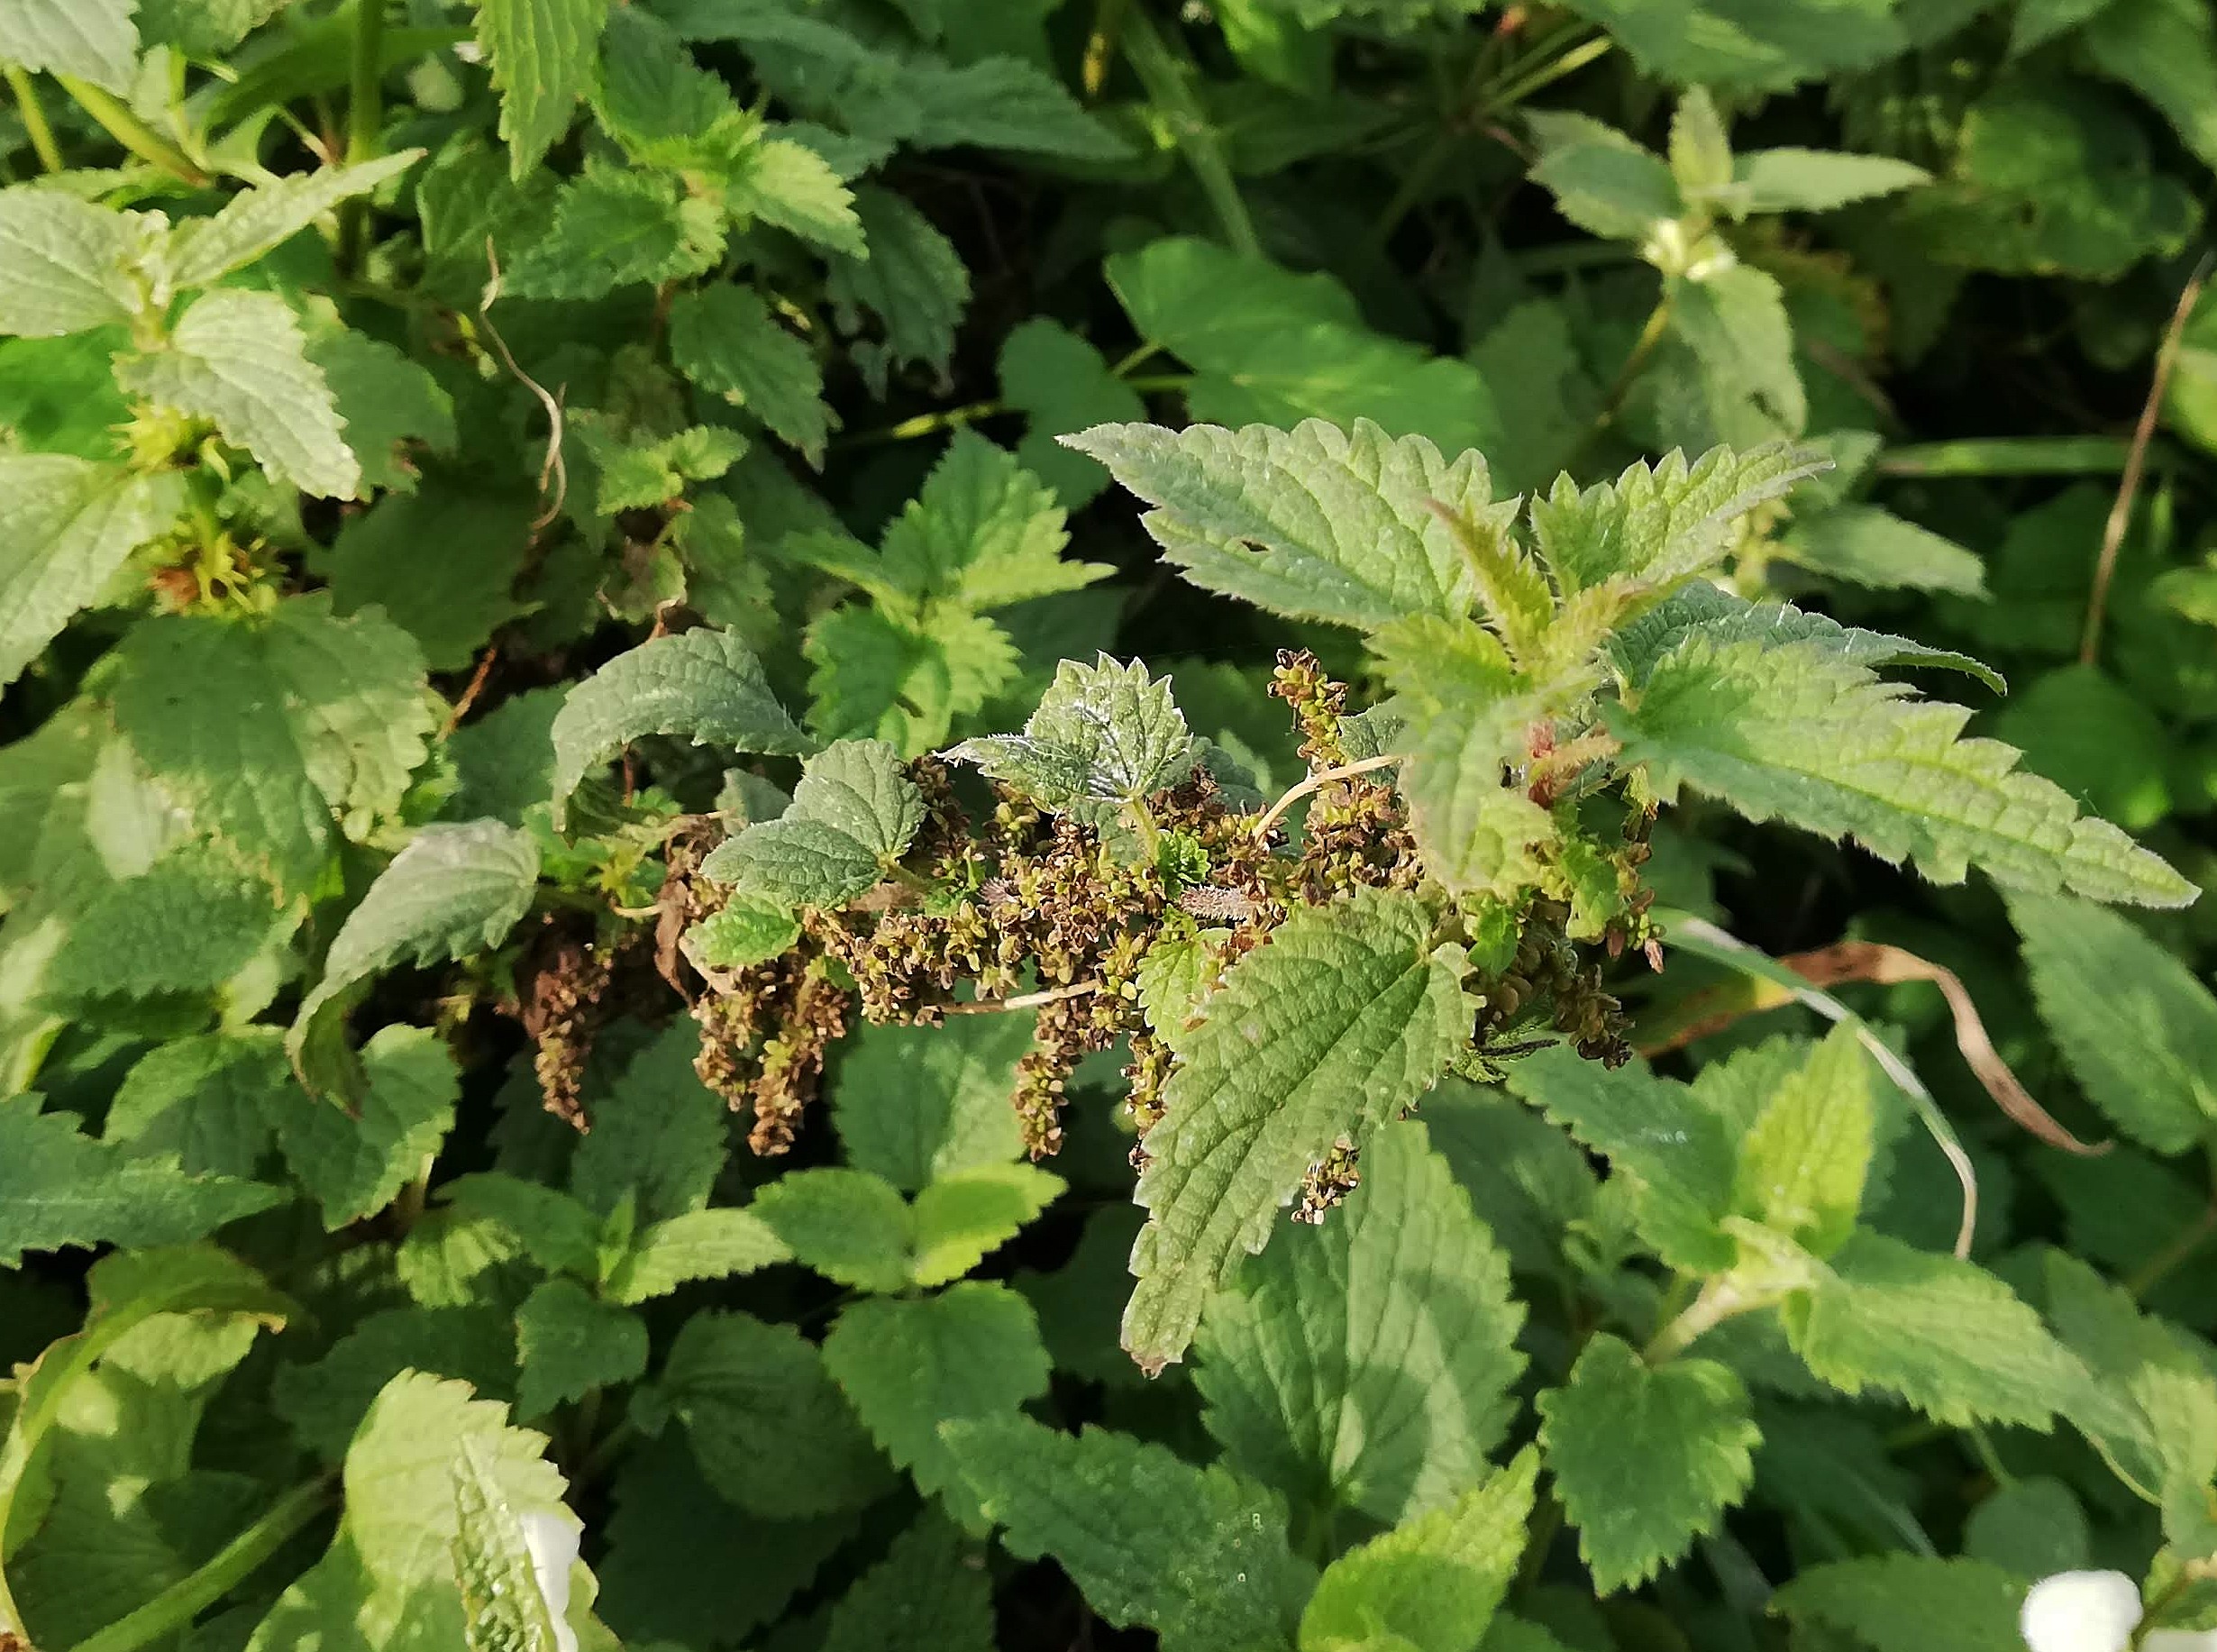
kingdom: Plantae
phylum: Tracheophyta
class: Magnoliopsida
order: Rosales
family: Urticaceae
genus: Urtica
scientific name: Urtica dioica
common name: Stor nælde
